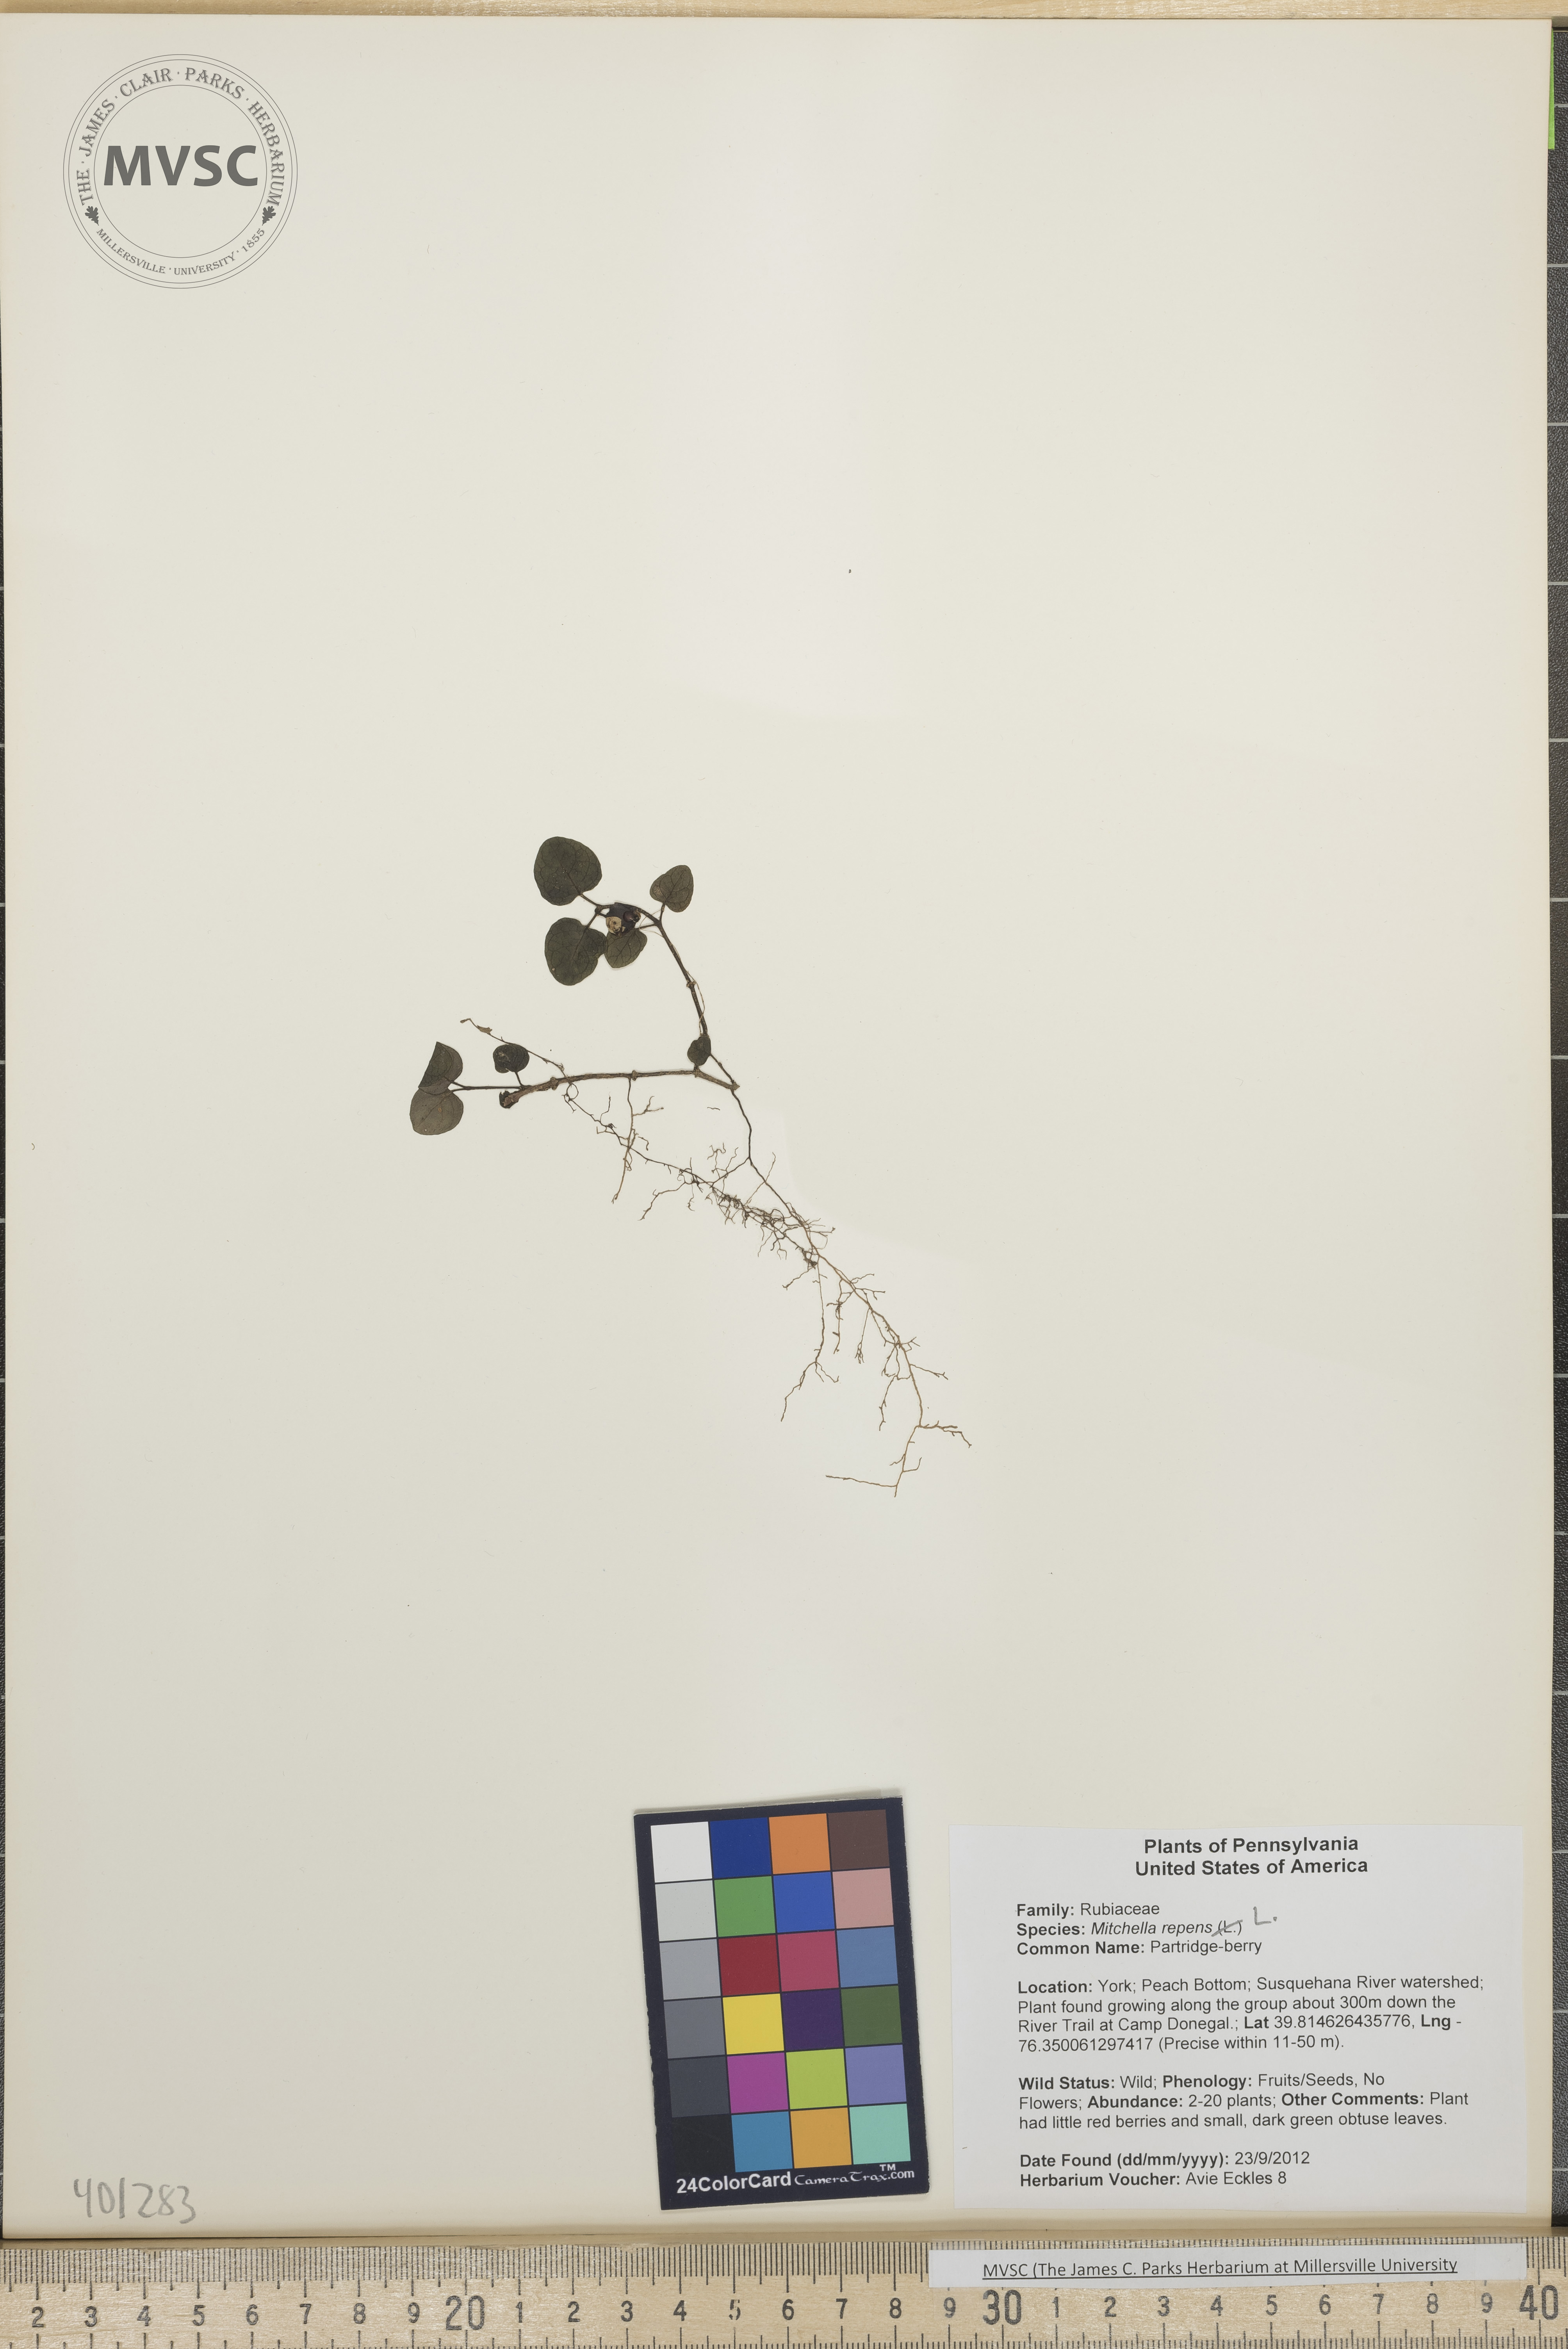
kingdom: Plantae
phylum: Tracheophyta
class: Magnoliopsida
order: Gentianales
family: Rubiaceae
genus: Mitchella
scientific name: Mitchella repens
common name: Partridge-berry
